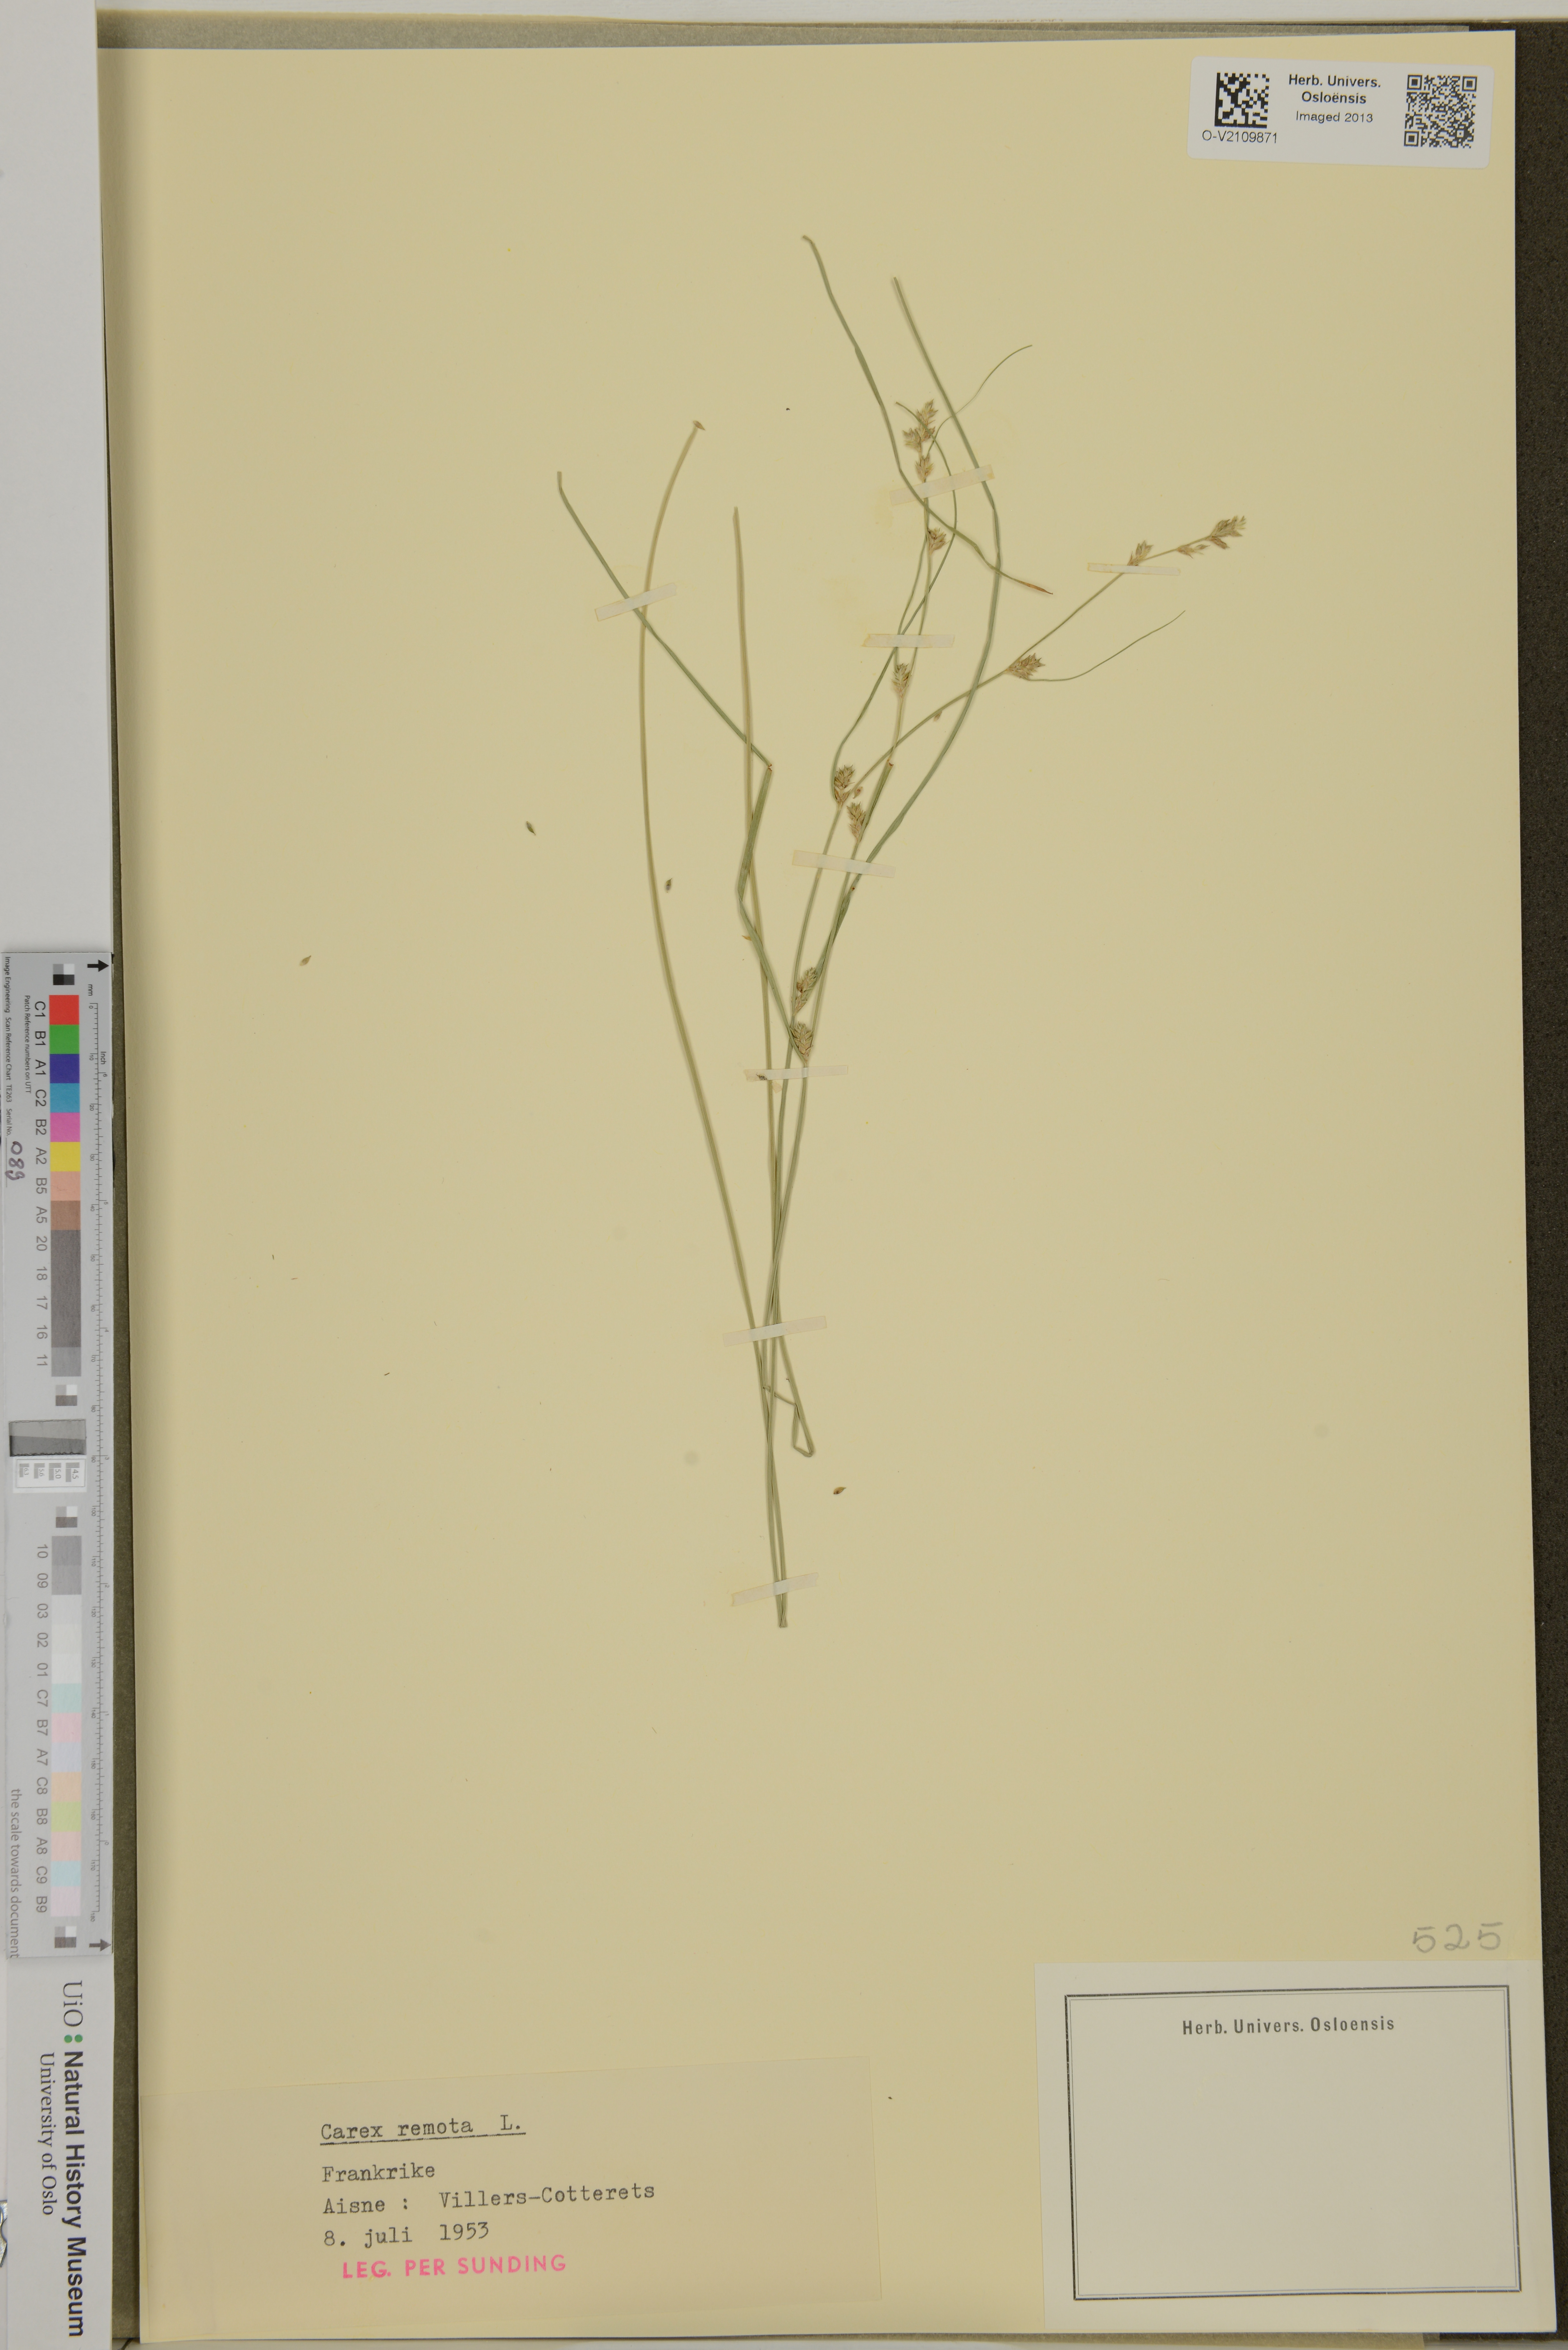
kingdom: Plantae
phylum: Tracheophyta
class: Liliopsida
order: Poales
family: Cyperaceae
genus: Carex
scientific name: Carex remota
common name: Remote sedge
